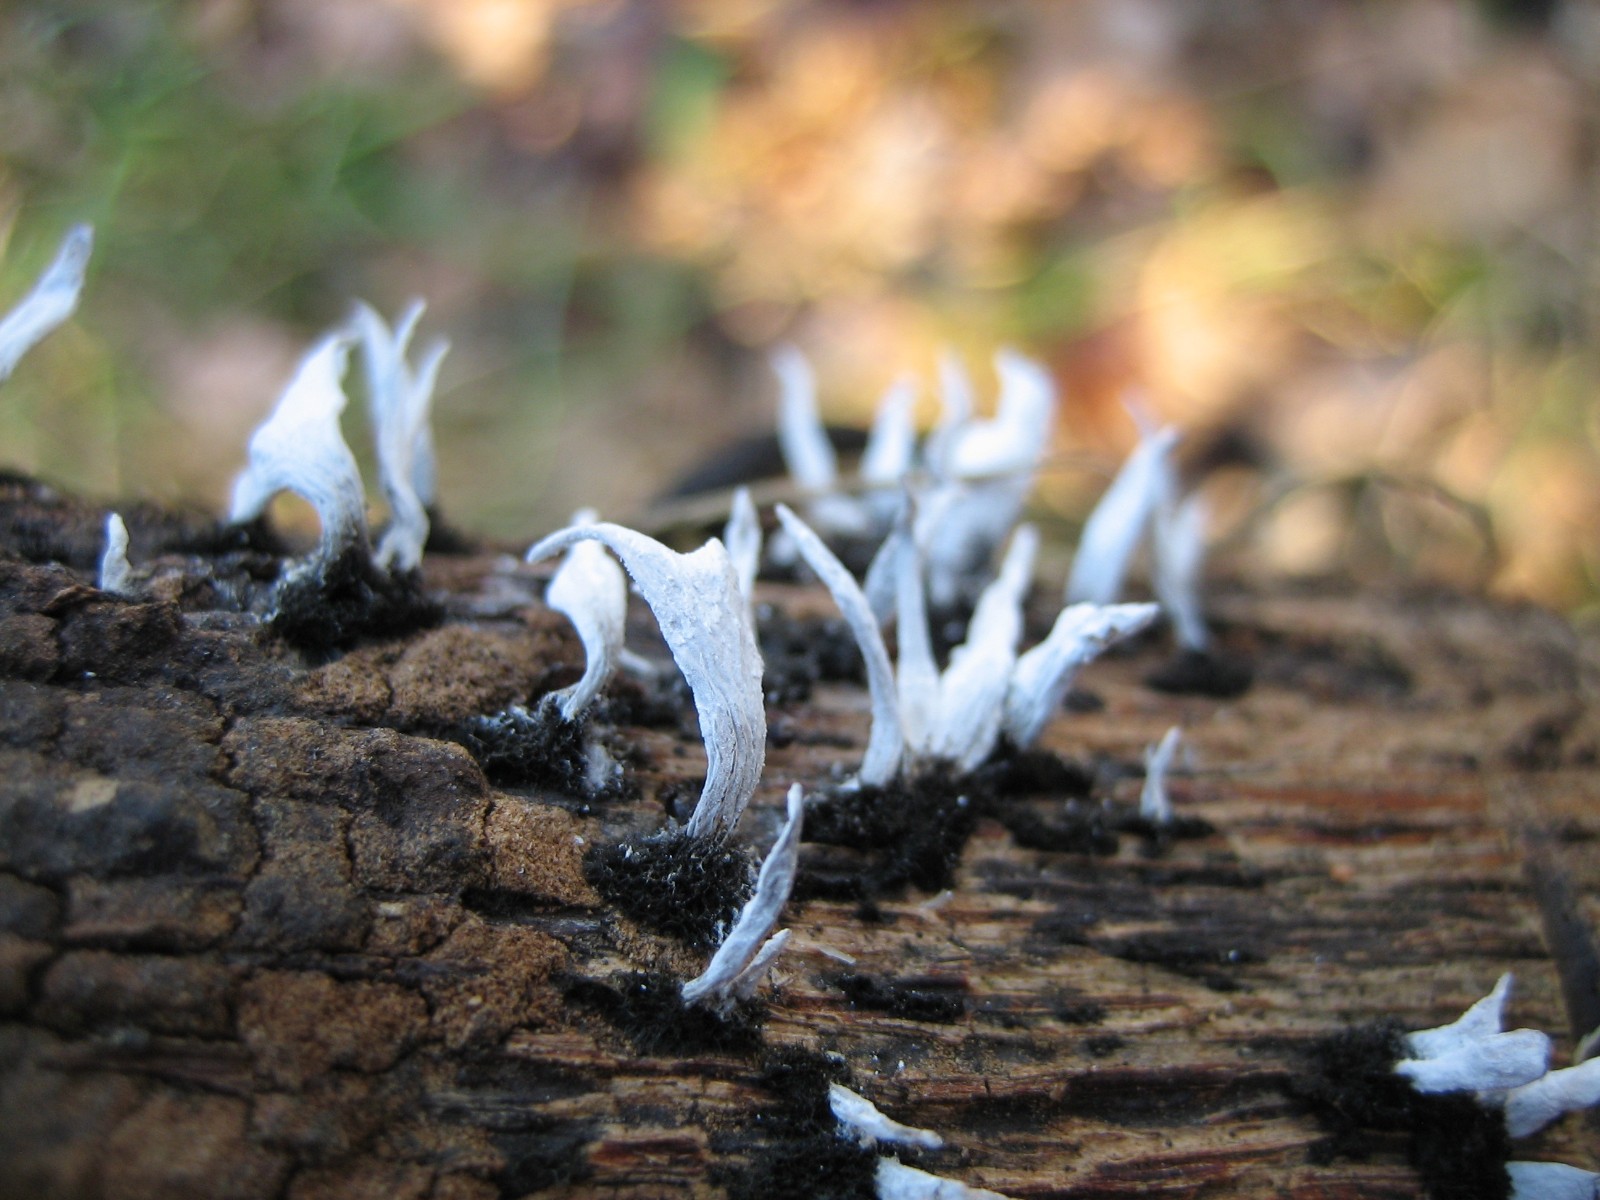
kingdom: Fungi
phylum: Ascomycota
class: Sordariomycetes
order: Xylariales
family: Xylariaceae
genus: Xylaria
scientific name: Xylaria hypoxylon
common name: grenet stødsvamp
